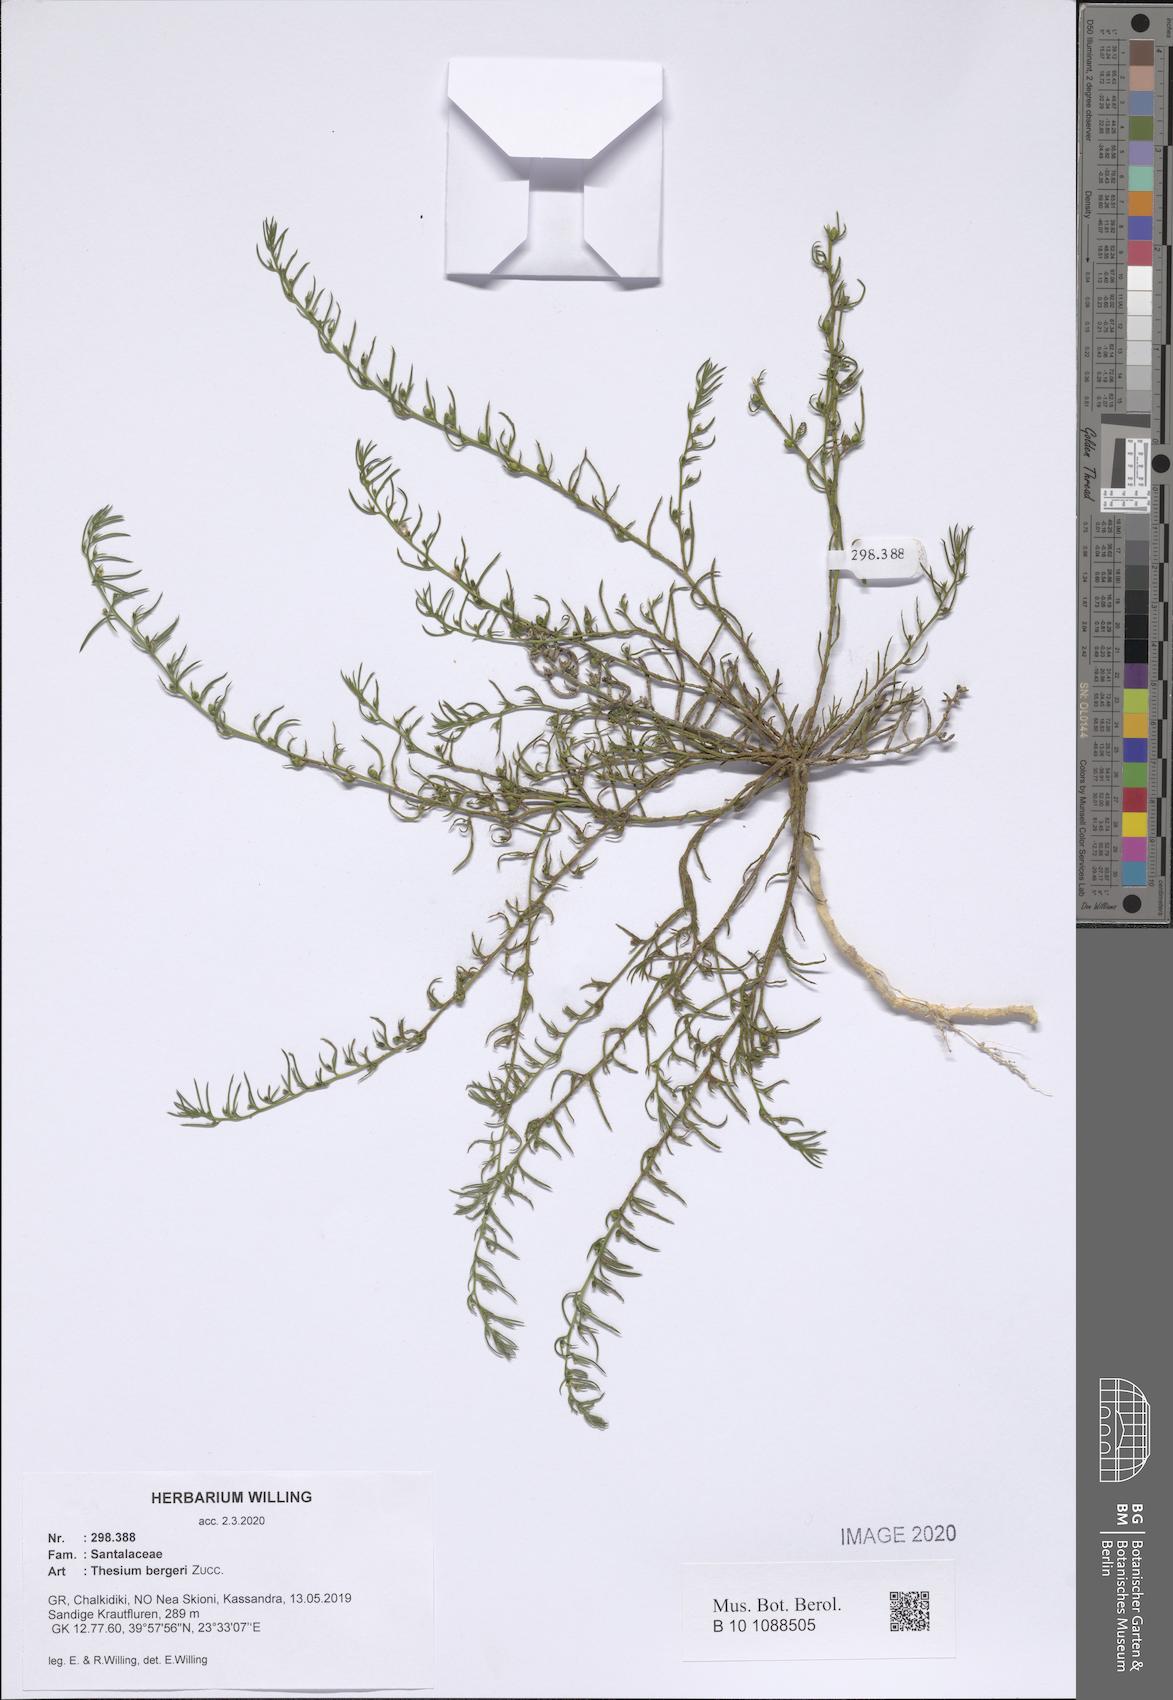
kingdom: Plantae
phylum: Tracheophyta
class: Magnoliopsida
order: Santalales
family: Thesiaceae
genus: Thesium
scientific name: Thesium bergeri
